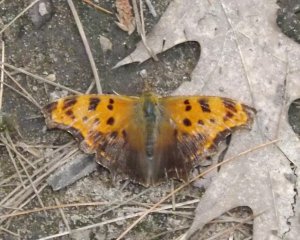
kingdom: Animalia
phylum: Arthropoda
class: Insecta
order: Lepidoptera
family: Nymphalidae
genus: Polygonia
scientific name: Polygonia comma
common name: Eastern Comma
